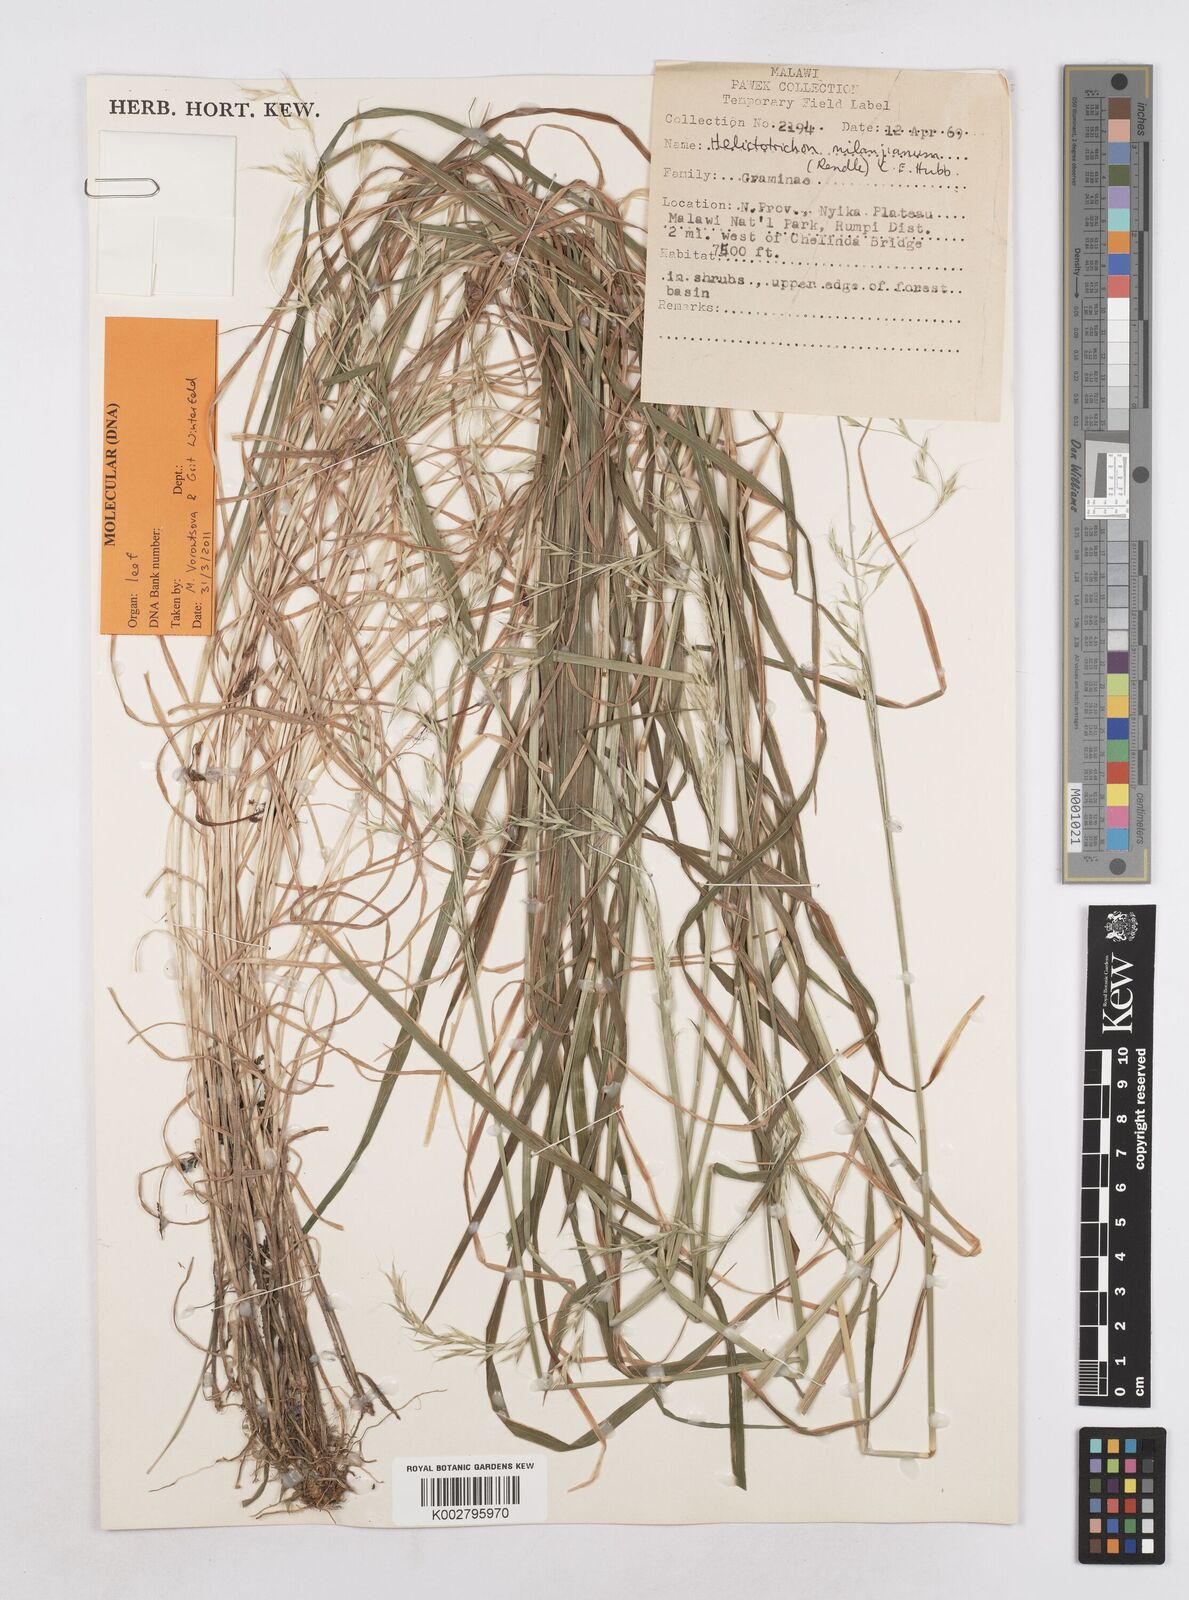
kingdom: Plantae
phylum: Tracheophyta
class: Liliopsida
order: Poales
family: Poaceae
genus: Trisetopsis
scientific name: Trisetopsis milanjiana
